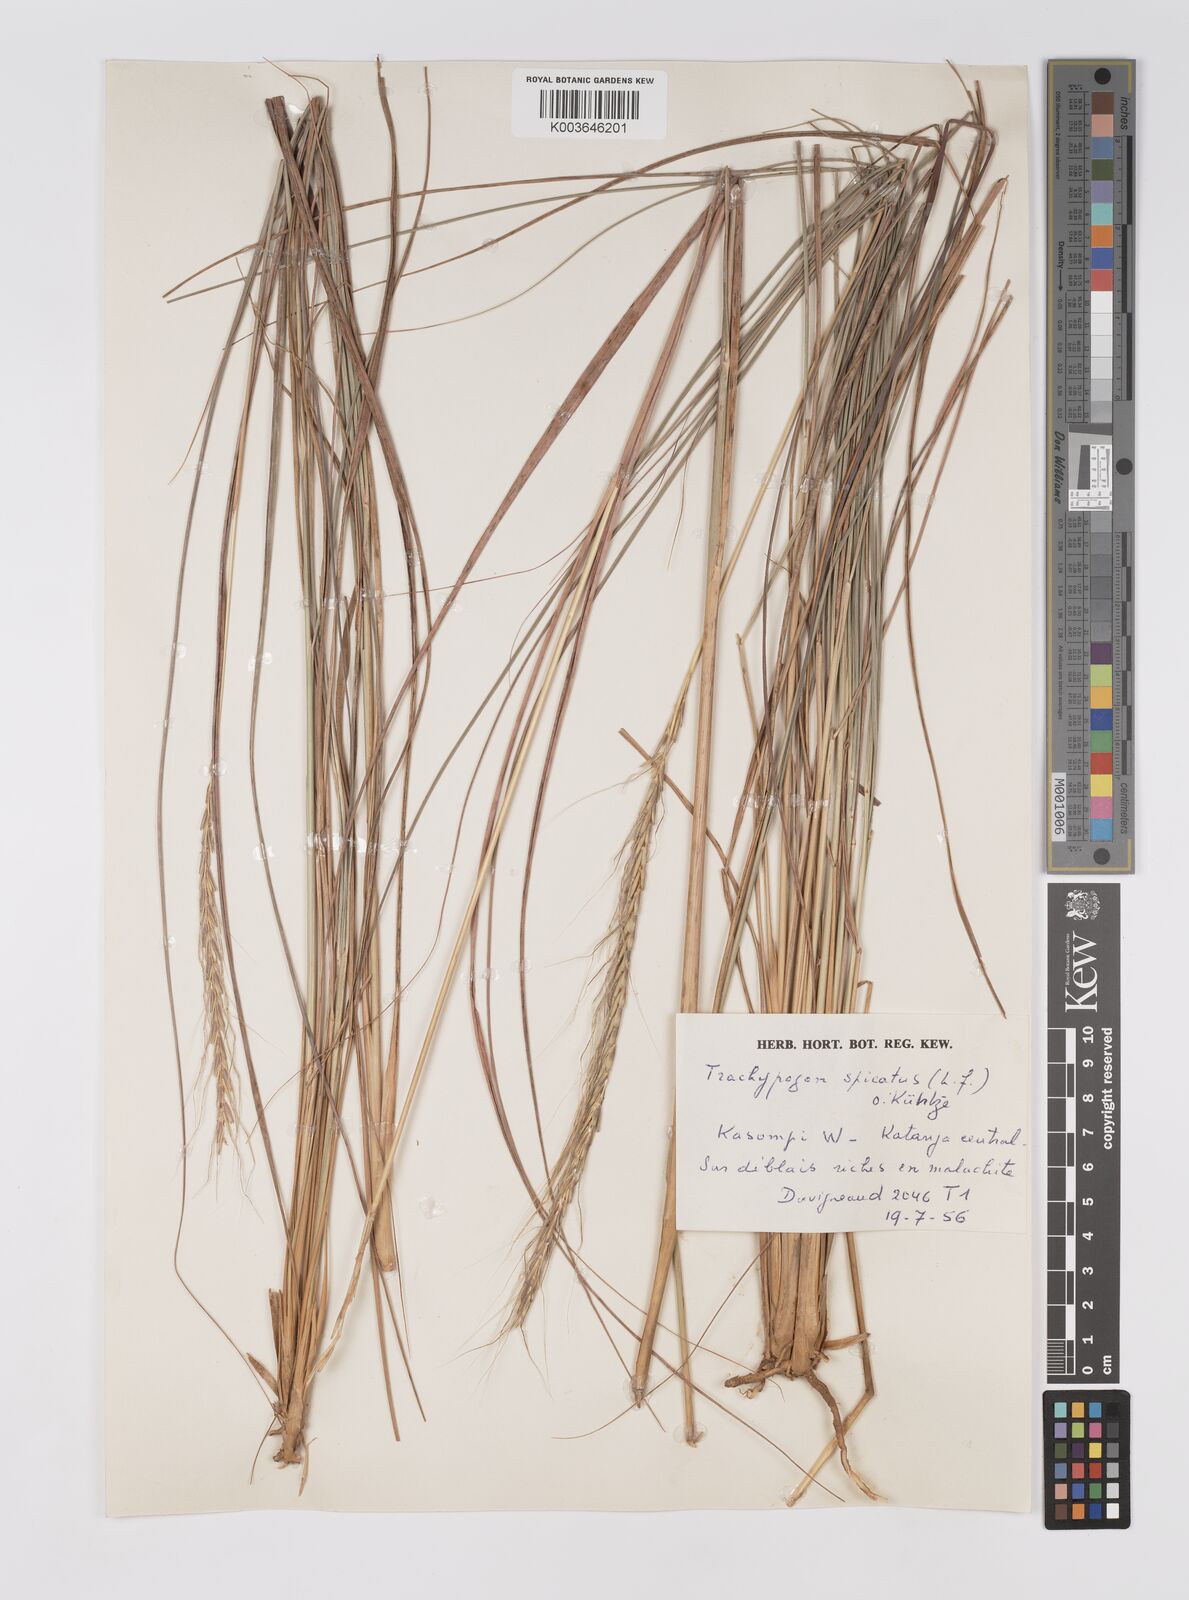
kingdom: Plantae
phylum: Tracheophyta
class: Liliopsida
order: Poales
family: Poaceae
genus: Trachypogon
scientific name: Trachypogon spicatus
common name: Crinkle-awn
